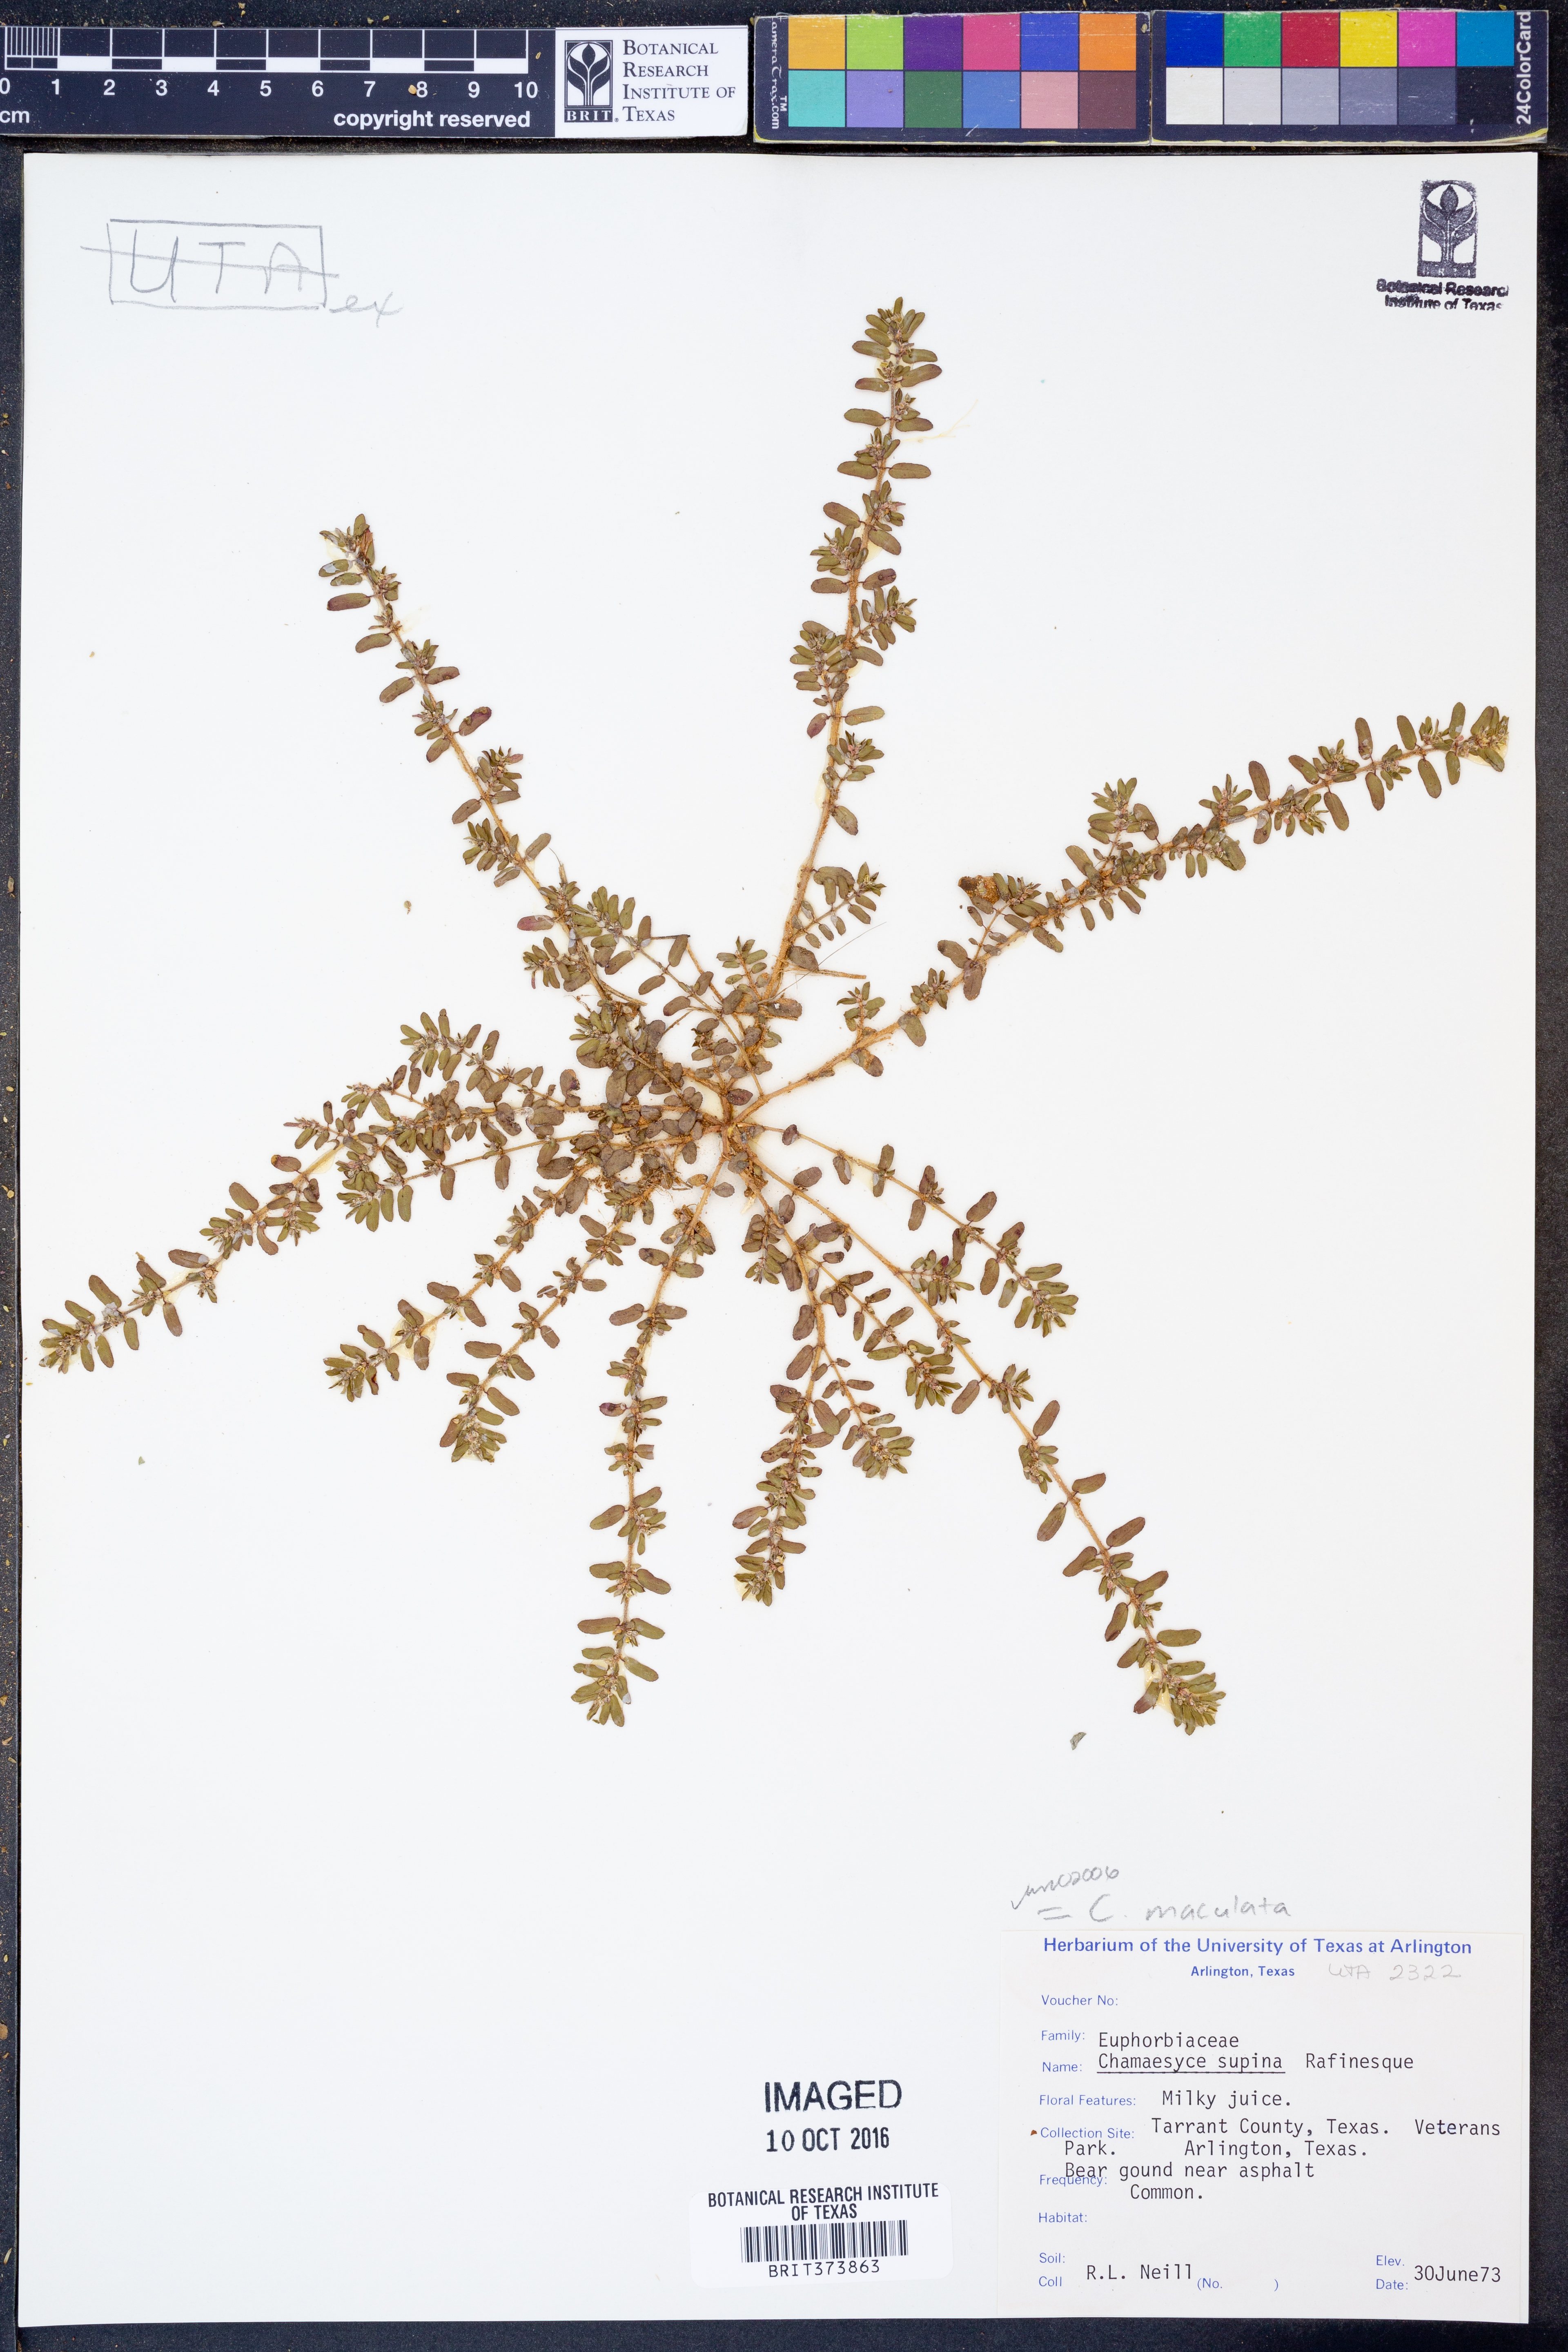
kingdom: Plantae
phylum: Tracheophyta
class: Magnoliopsida
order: Malpighiales
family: Euphorbiaceae
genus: Euphorbia
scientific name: Euphorbia maculata
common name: Spotted spurge
